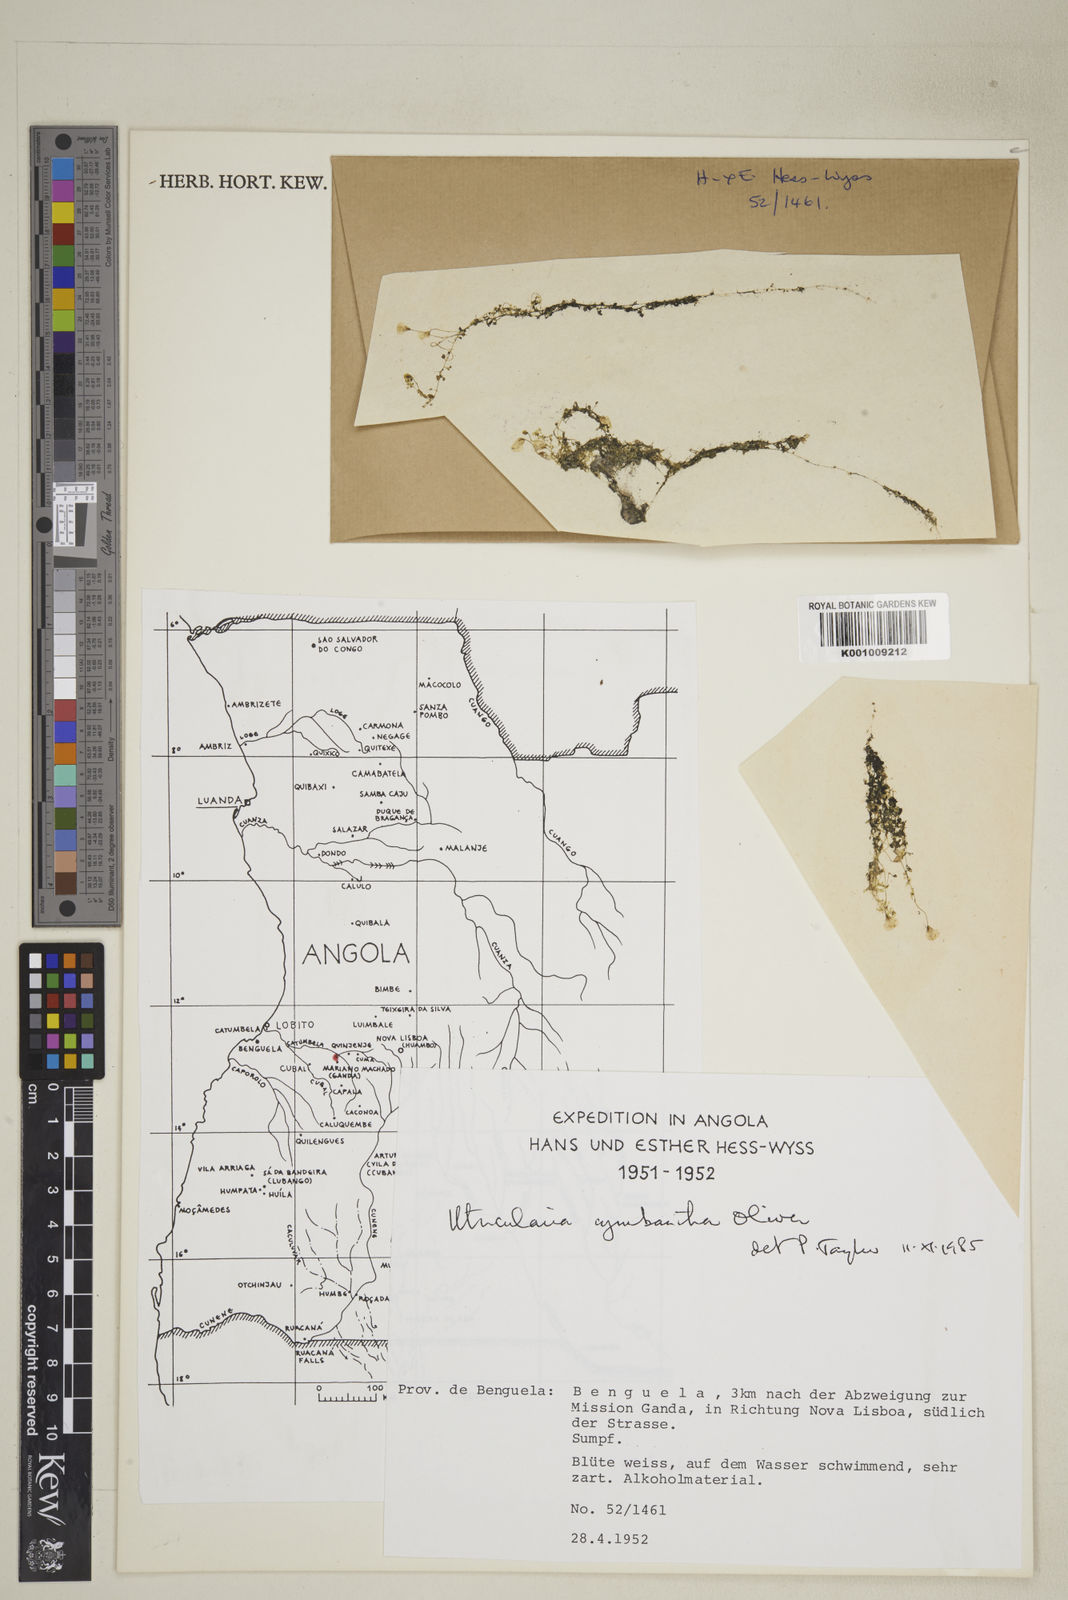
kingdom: Plantae
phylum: Tracheophyta
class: Magnoliopsida
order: Lamiales
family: Lentibulariaceae
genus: Utricularia
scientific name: Utricularia cymbantha
